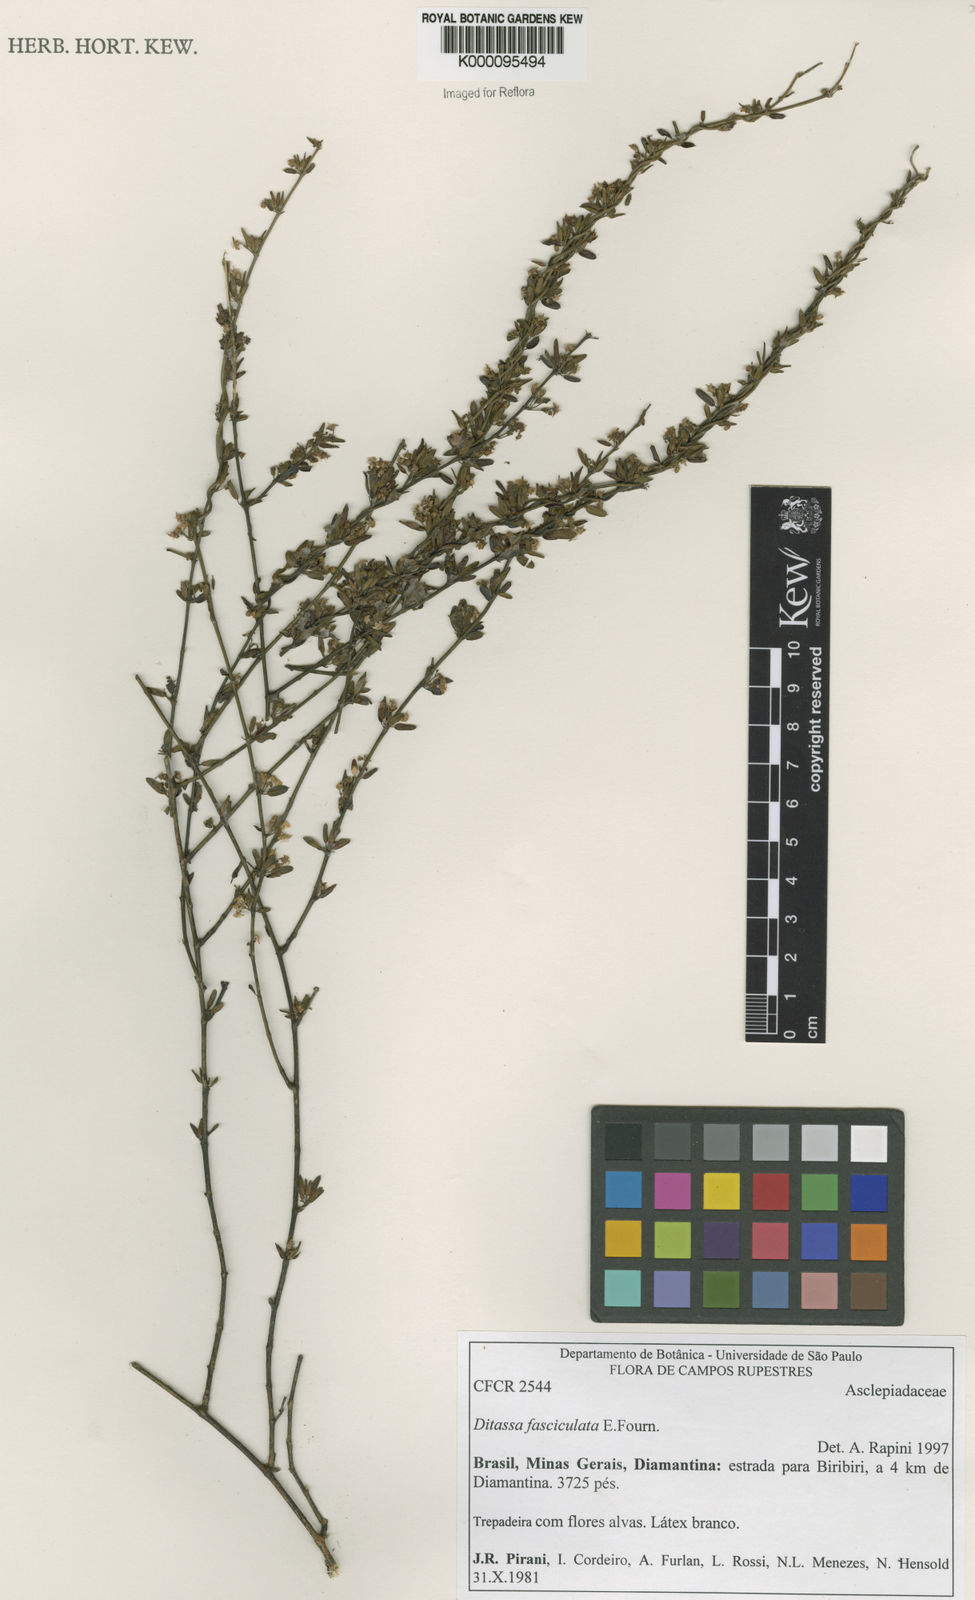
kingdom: Plantae
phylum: Tracheophyta
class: Magnoliopsida
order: Gentianales
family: Apocynaceae
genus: Ditassa
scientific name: Ditassa fasciculata
